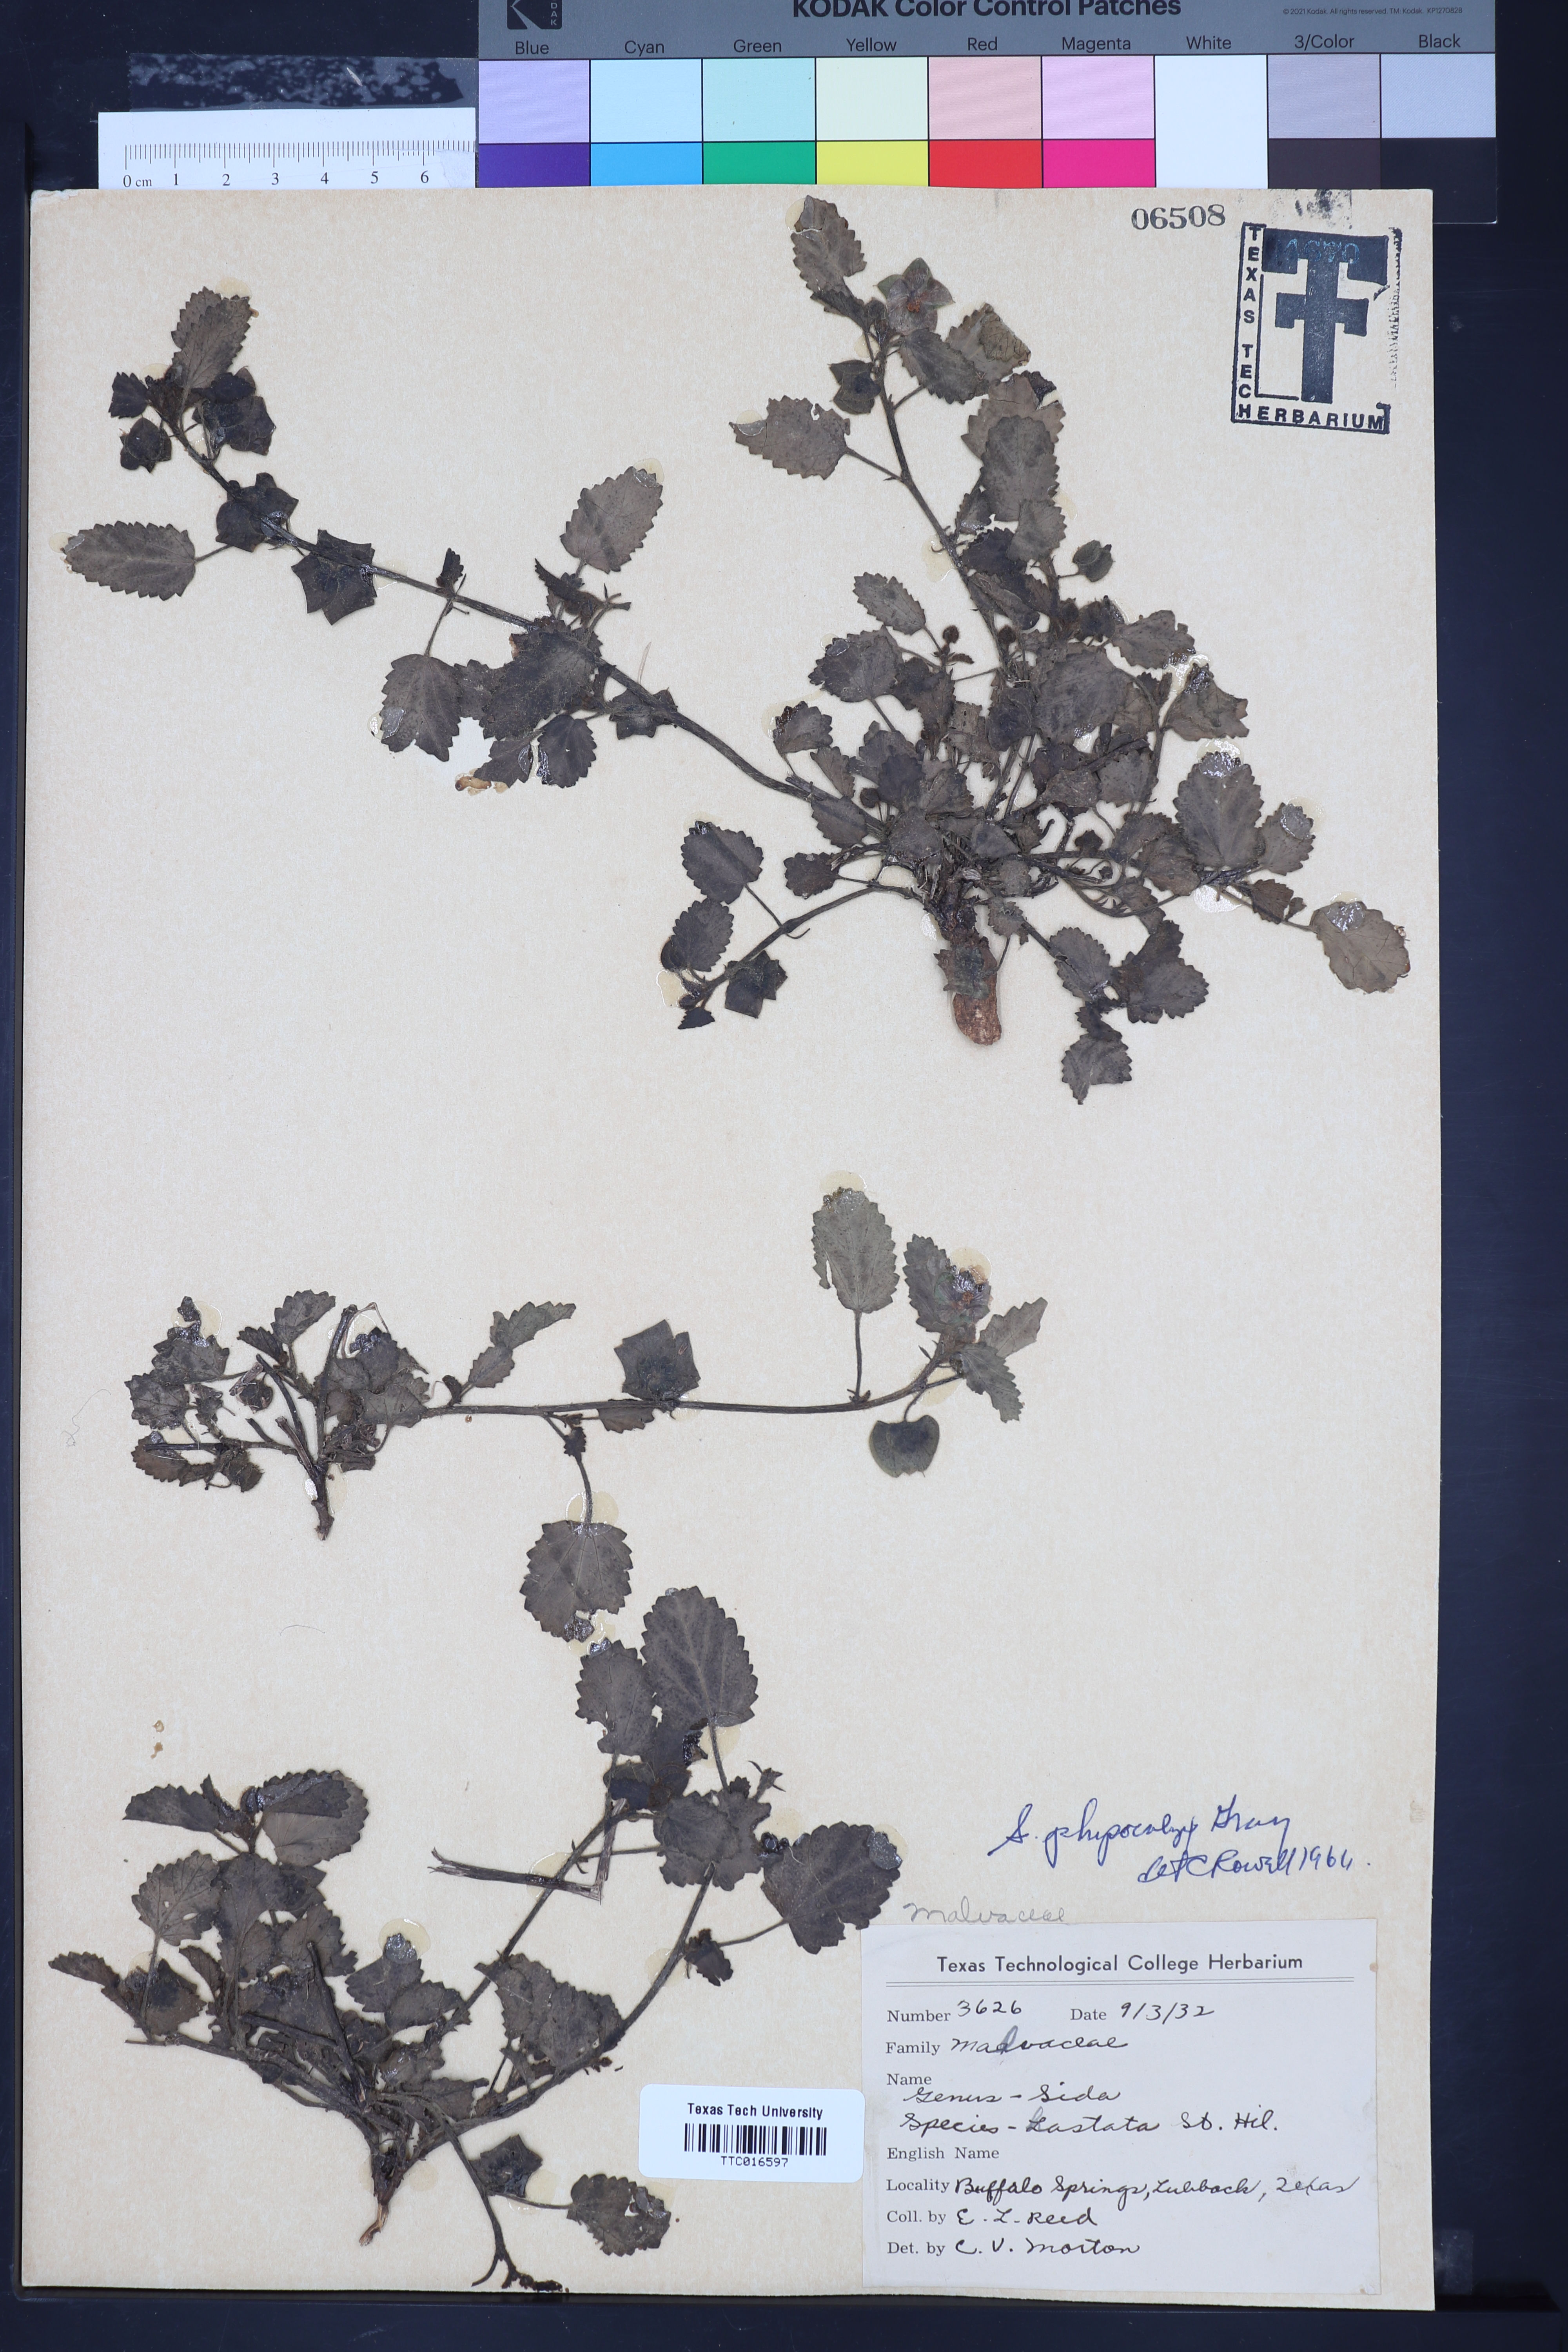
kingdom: Plantae
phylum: Tracheophyta
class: Magnoliopsida
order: Malvales
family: Malvaceae
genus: Rhynchosida
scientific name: Rhynchosida physocalyx
